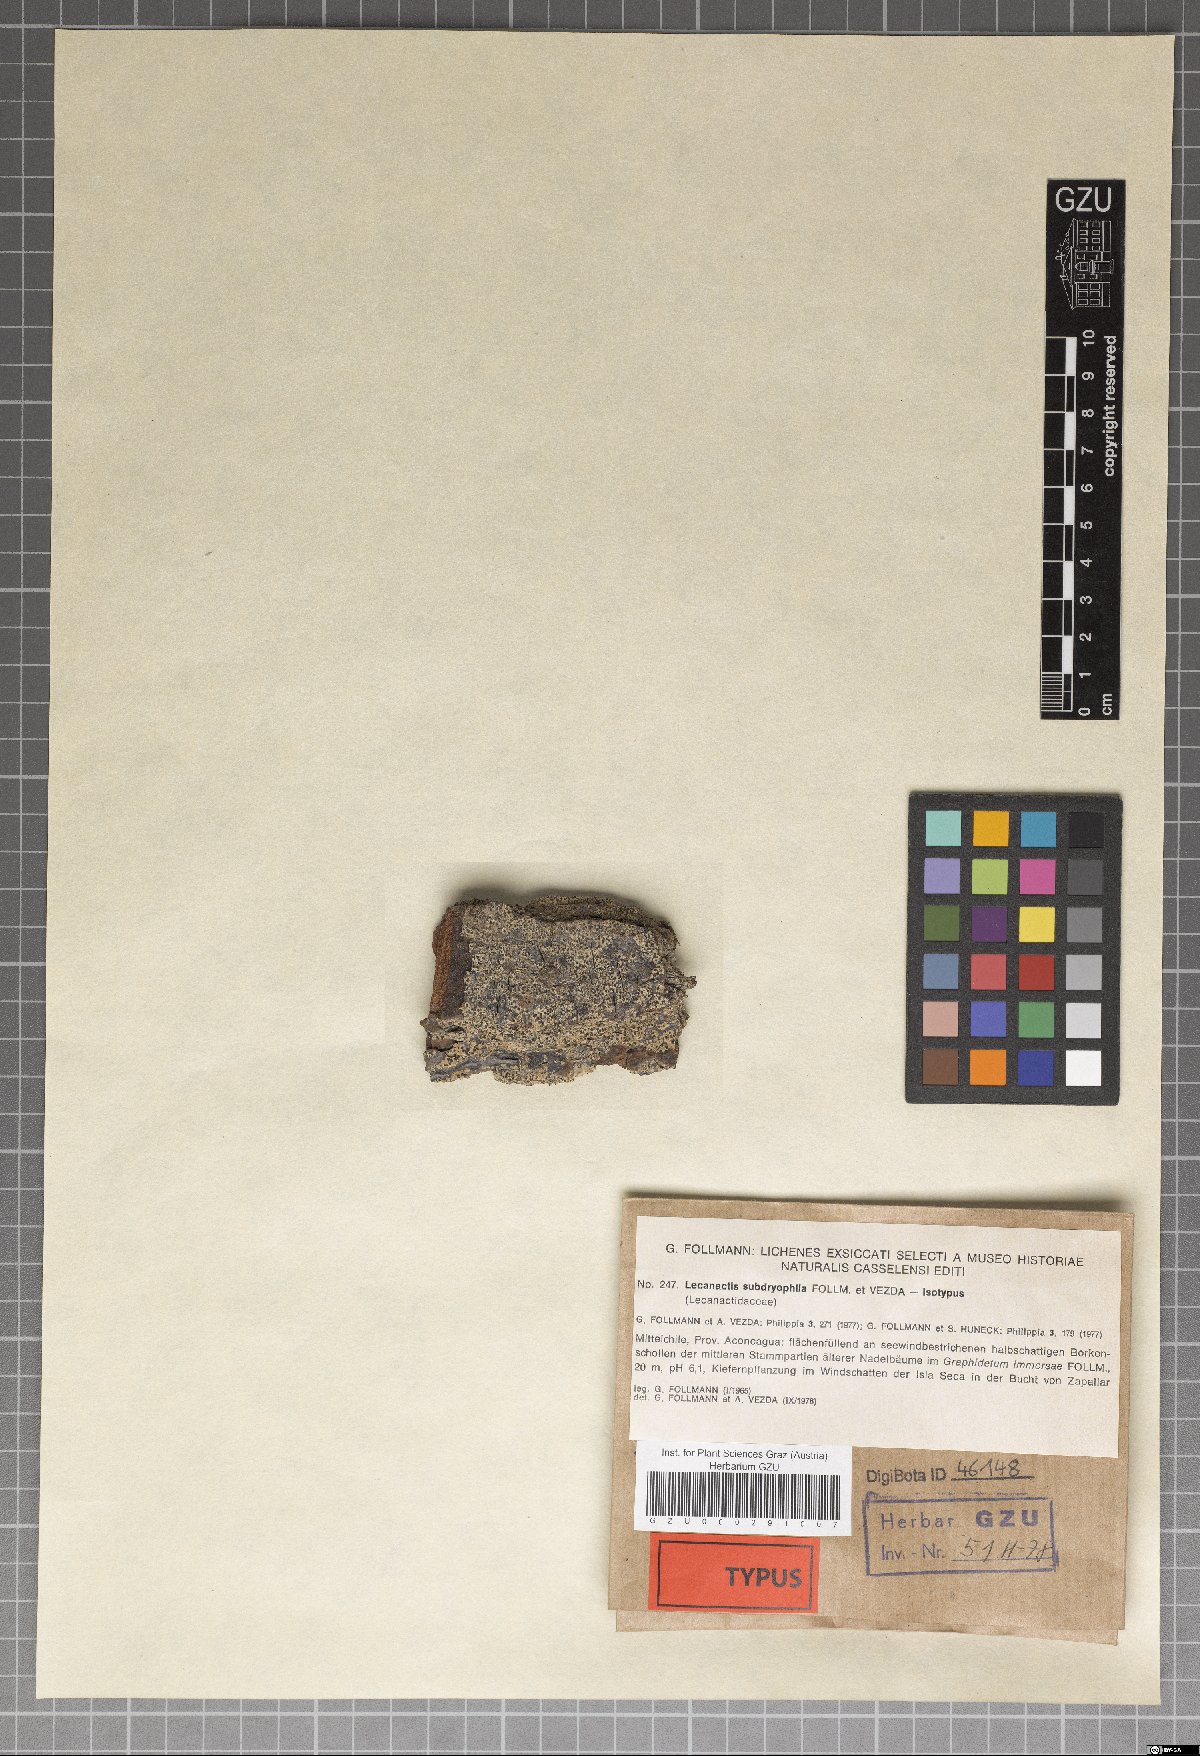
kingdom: Fungi
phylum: Ascomycota
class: Arthoniomycetes
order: Arthoniales
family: Lecanographaceae
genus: Lecanographa
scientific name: Lecanographa subdryophila
